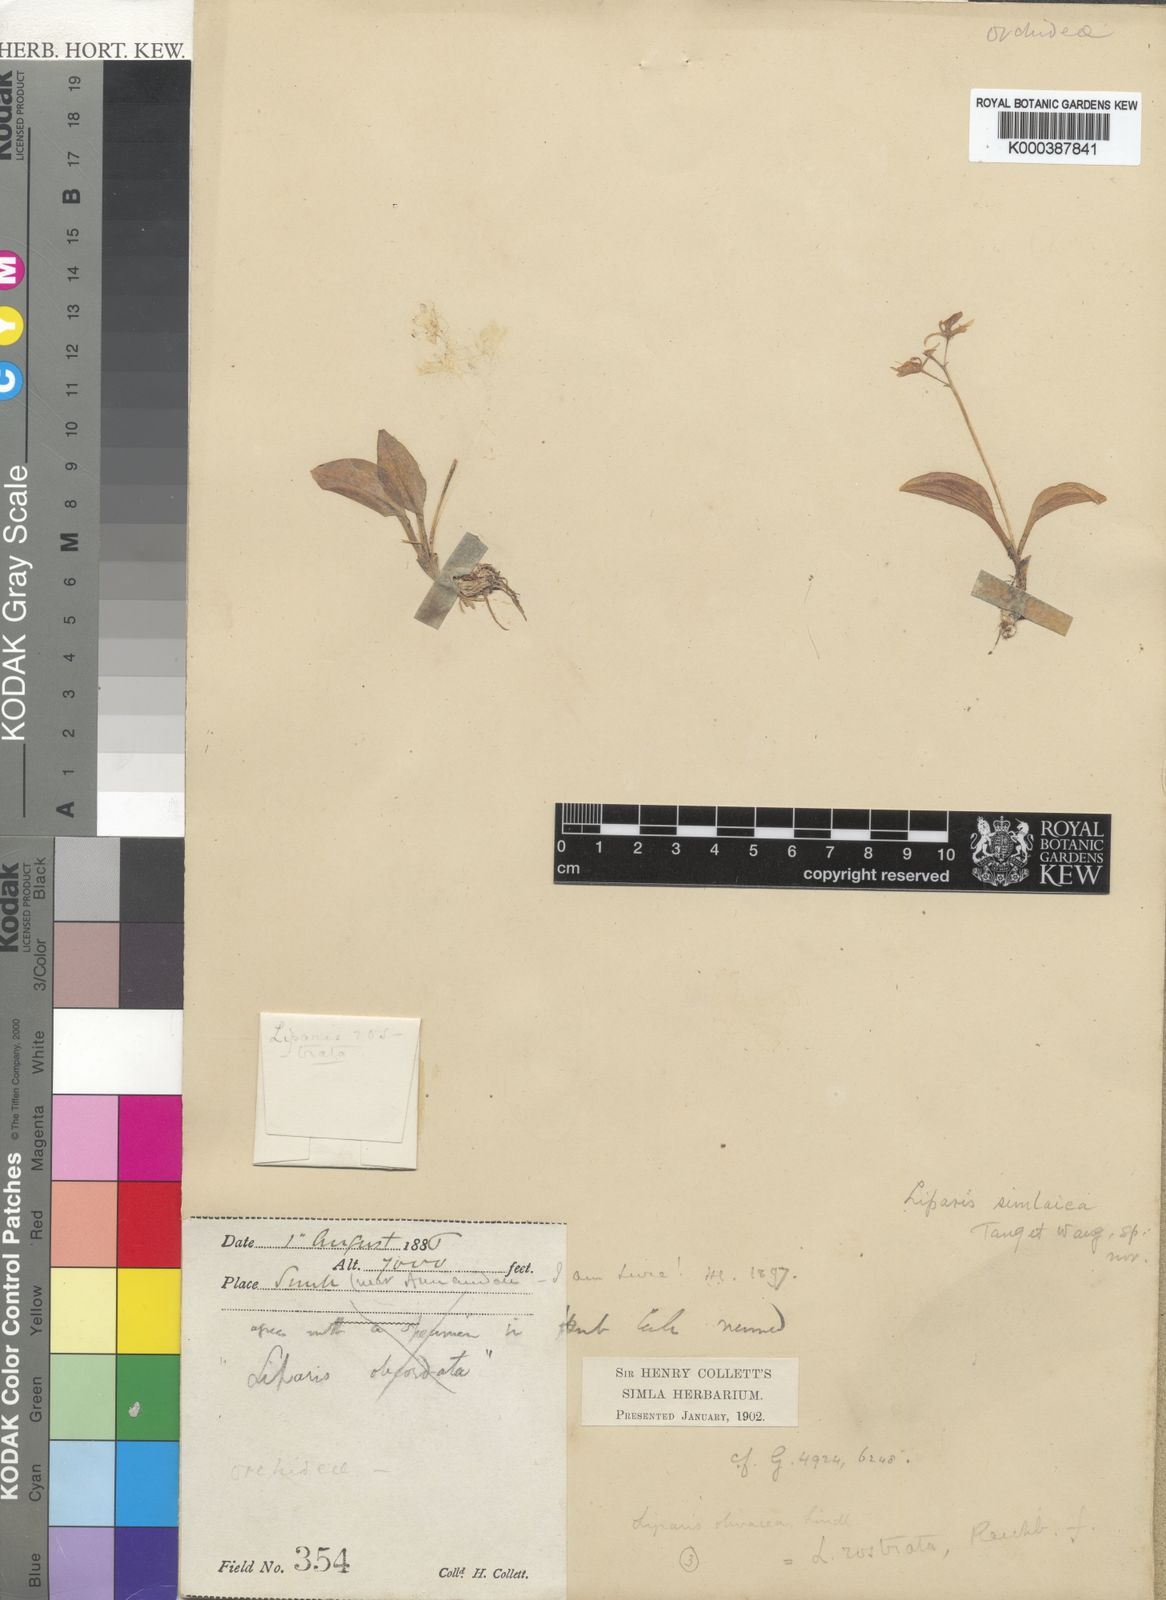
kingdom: Plantae
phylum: Tracheophyta
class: Liliopsida
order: Asparagales
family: Orchidaceae
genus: Liparis
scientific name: Liparis
